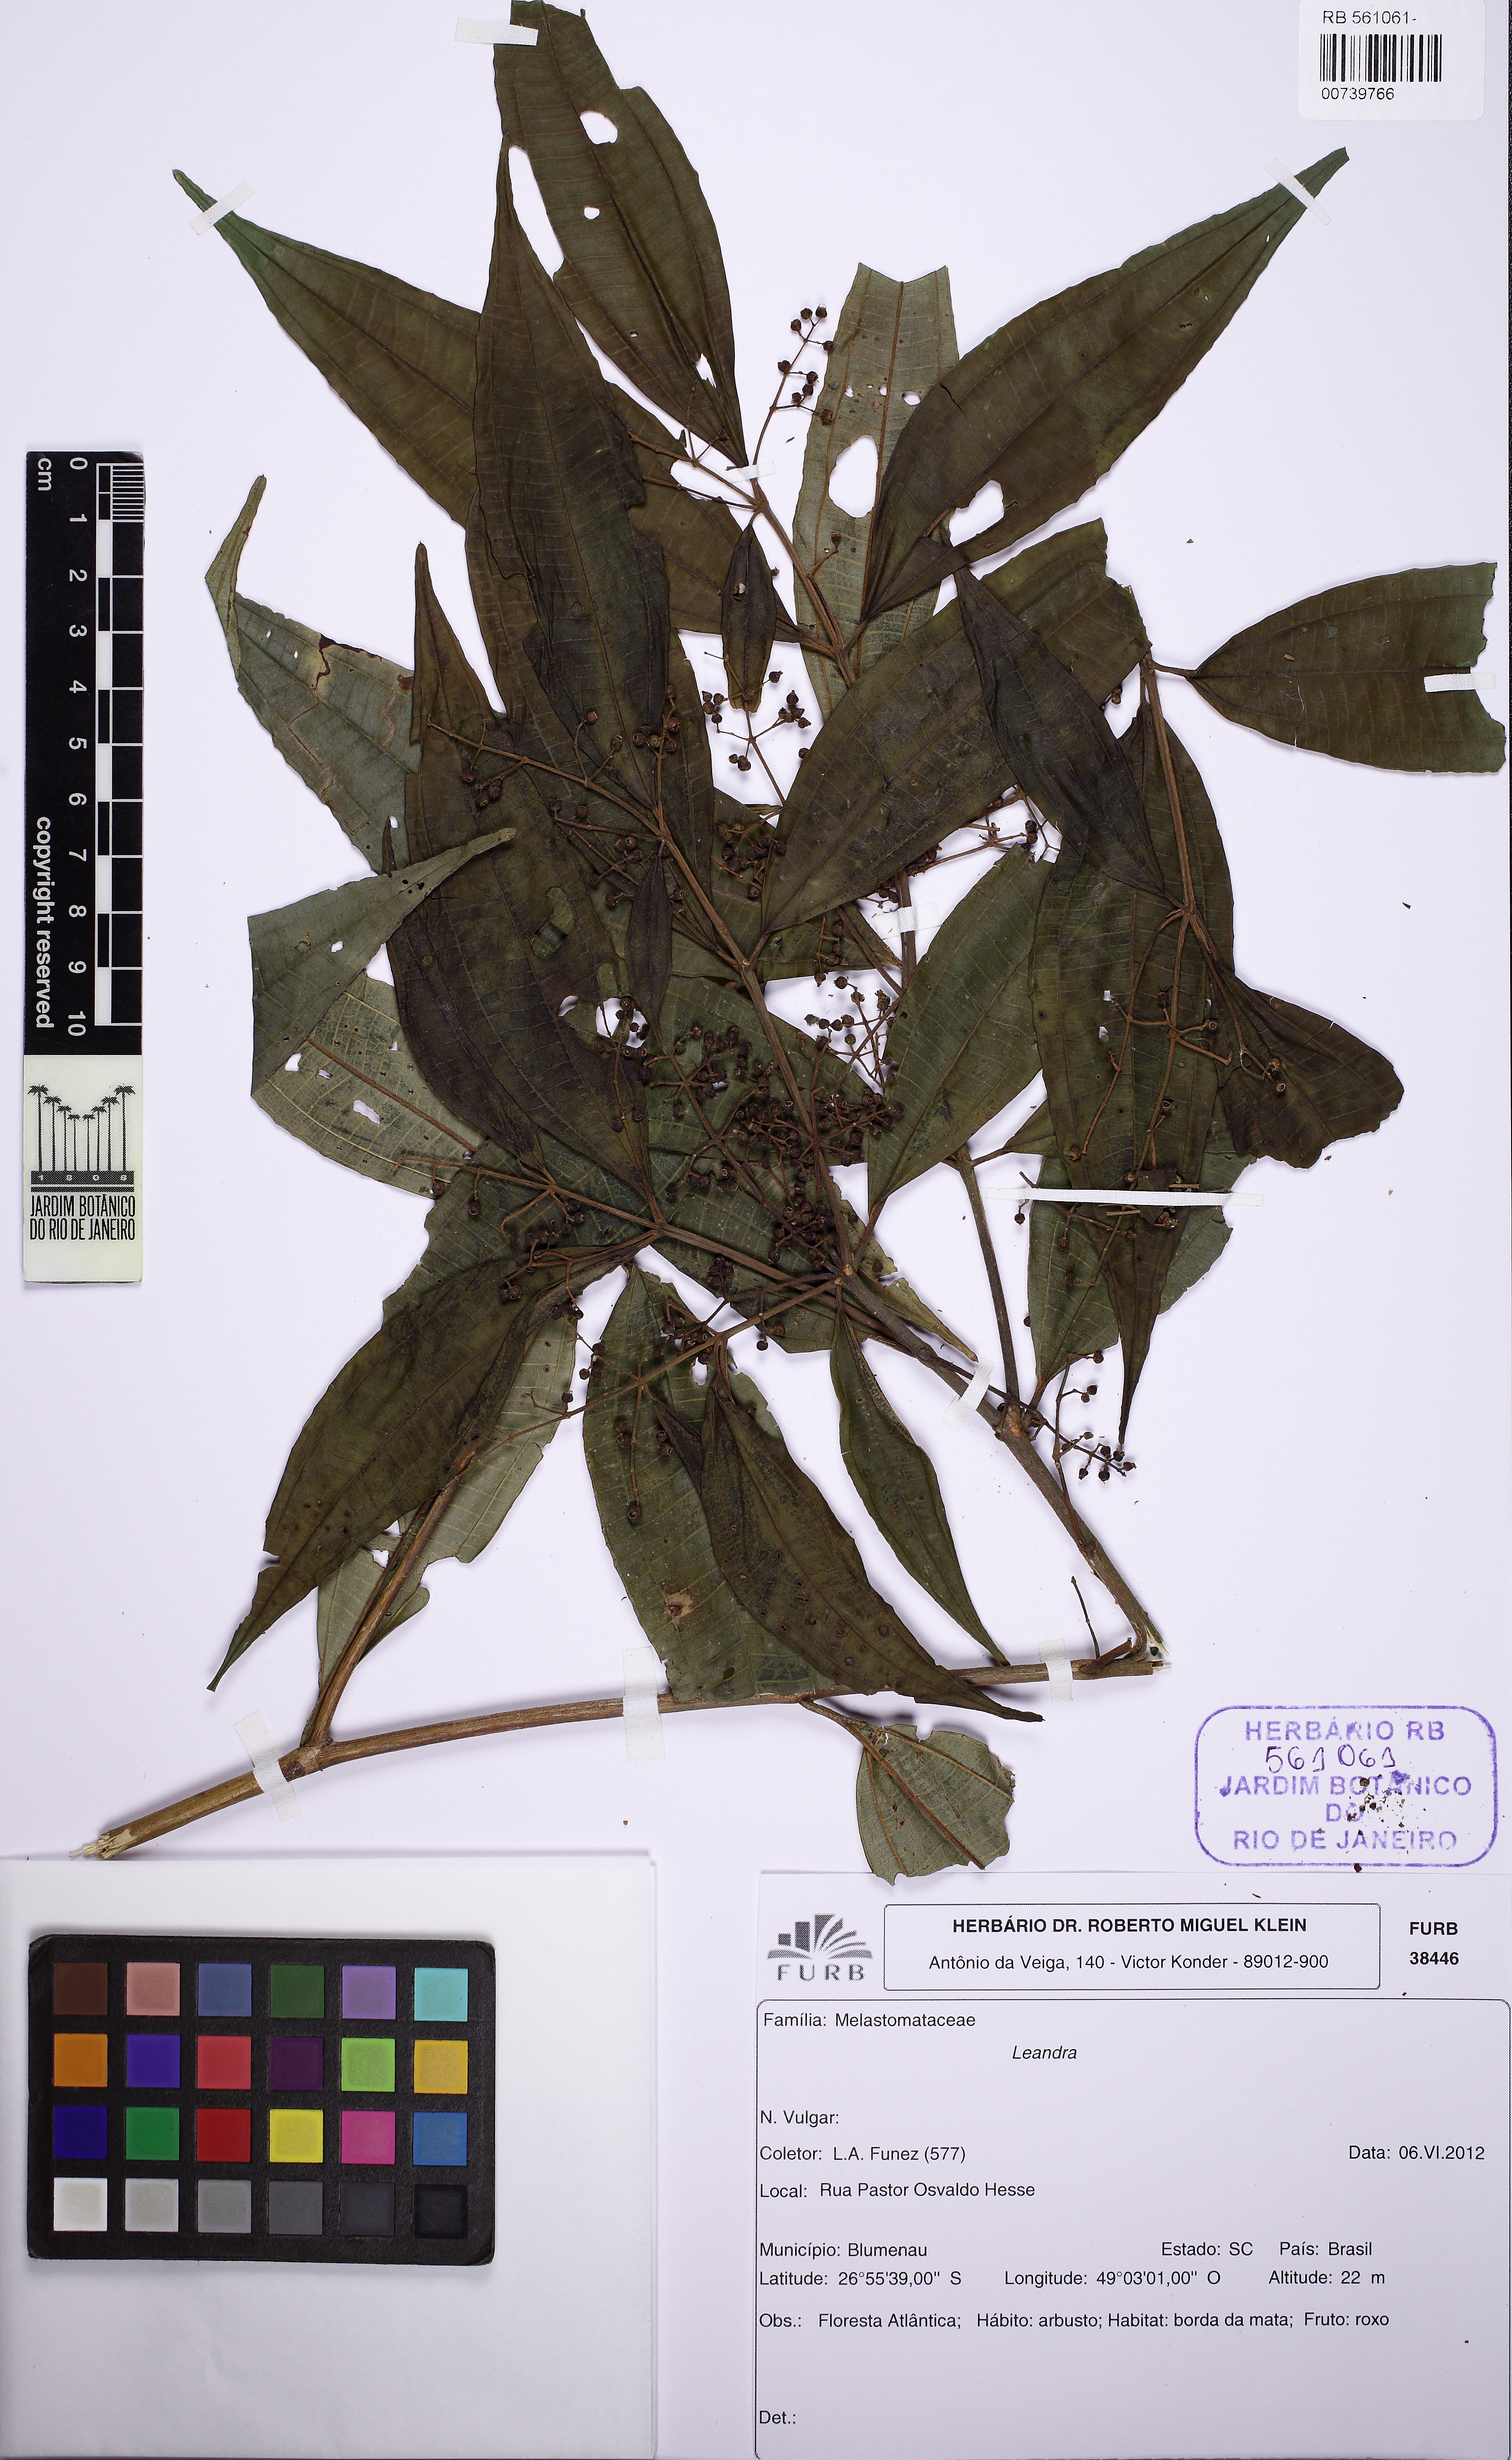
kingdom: Plantae
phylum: Tracheophyta
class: Magnoliopsida
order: Myrtales
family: Melastomataceae
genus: Miconia
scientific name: Miconia
